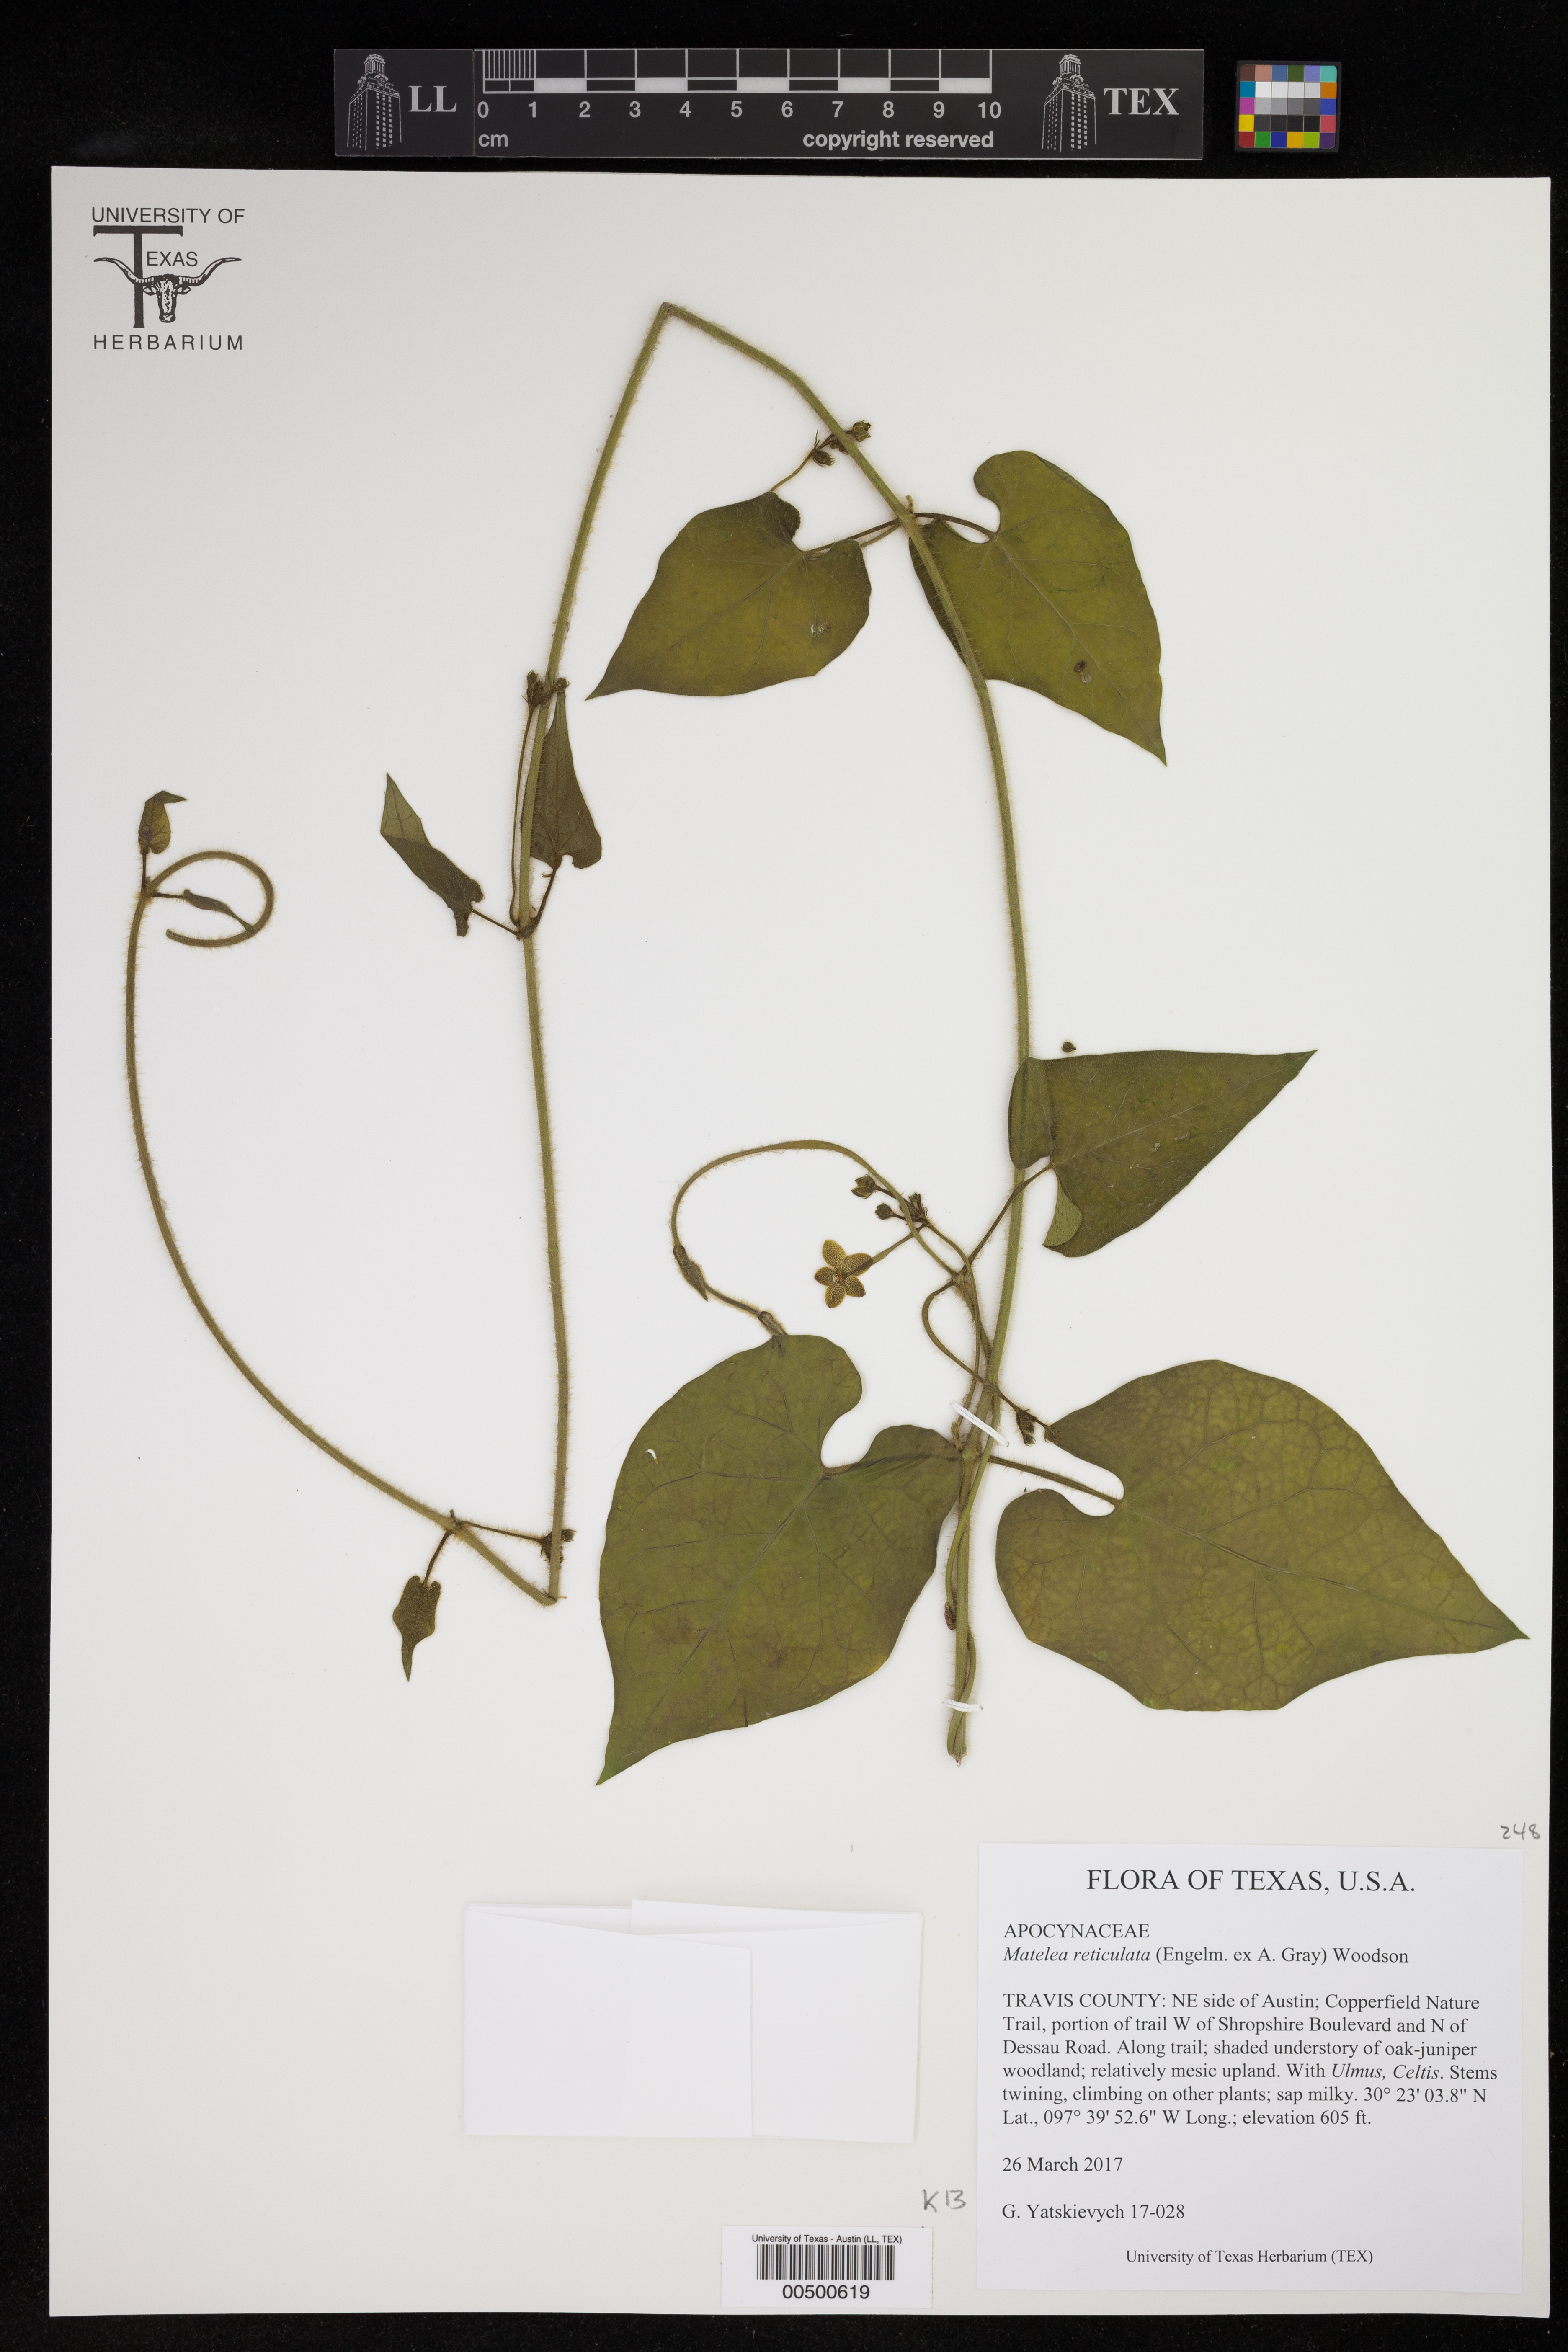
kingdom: Plantae
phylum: Tracheophyta
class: Magnoliopsida
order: Gentianales
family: Apocynaceae
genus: Dictyanthus
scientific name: Dictyanthus reticulatus
